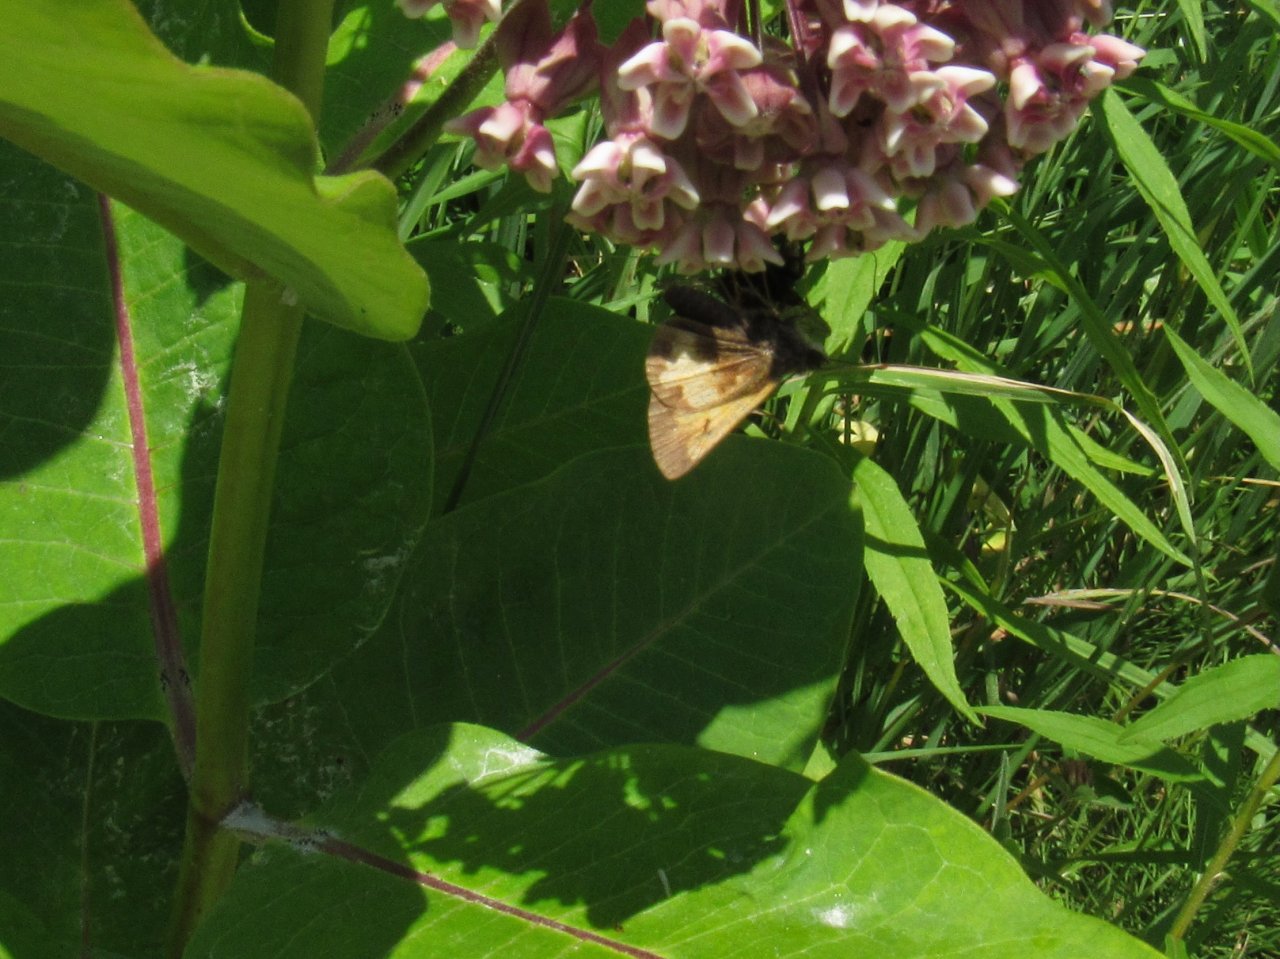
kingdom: Animalia
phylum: Arthropoda
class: Insecta
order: Lepidoptera
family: Hesperiidae
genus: Lon
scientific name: Lon hobomok
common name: Hobomok Skipper
